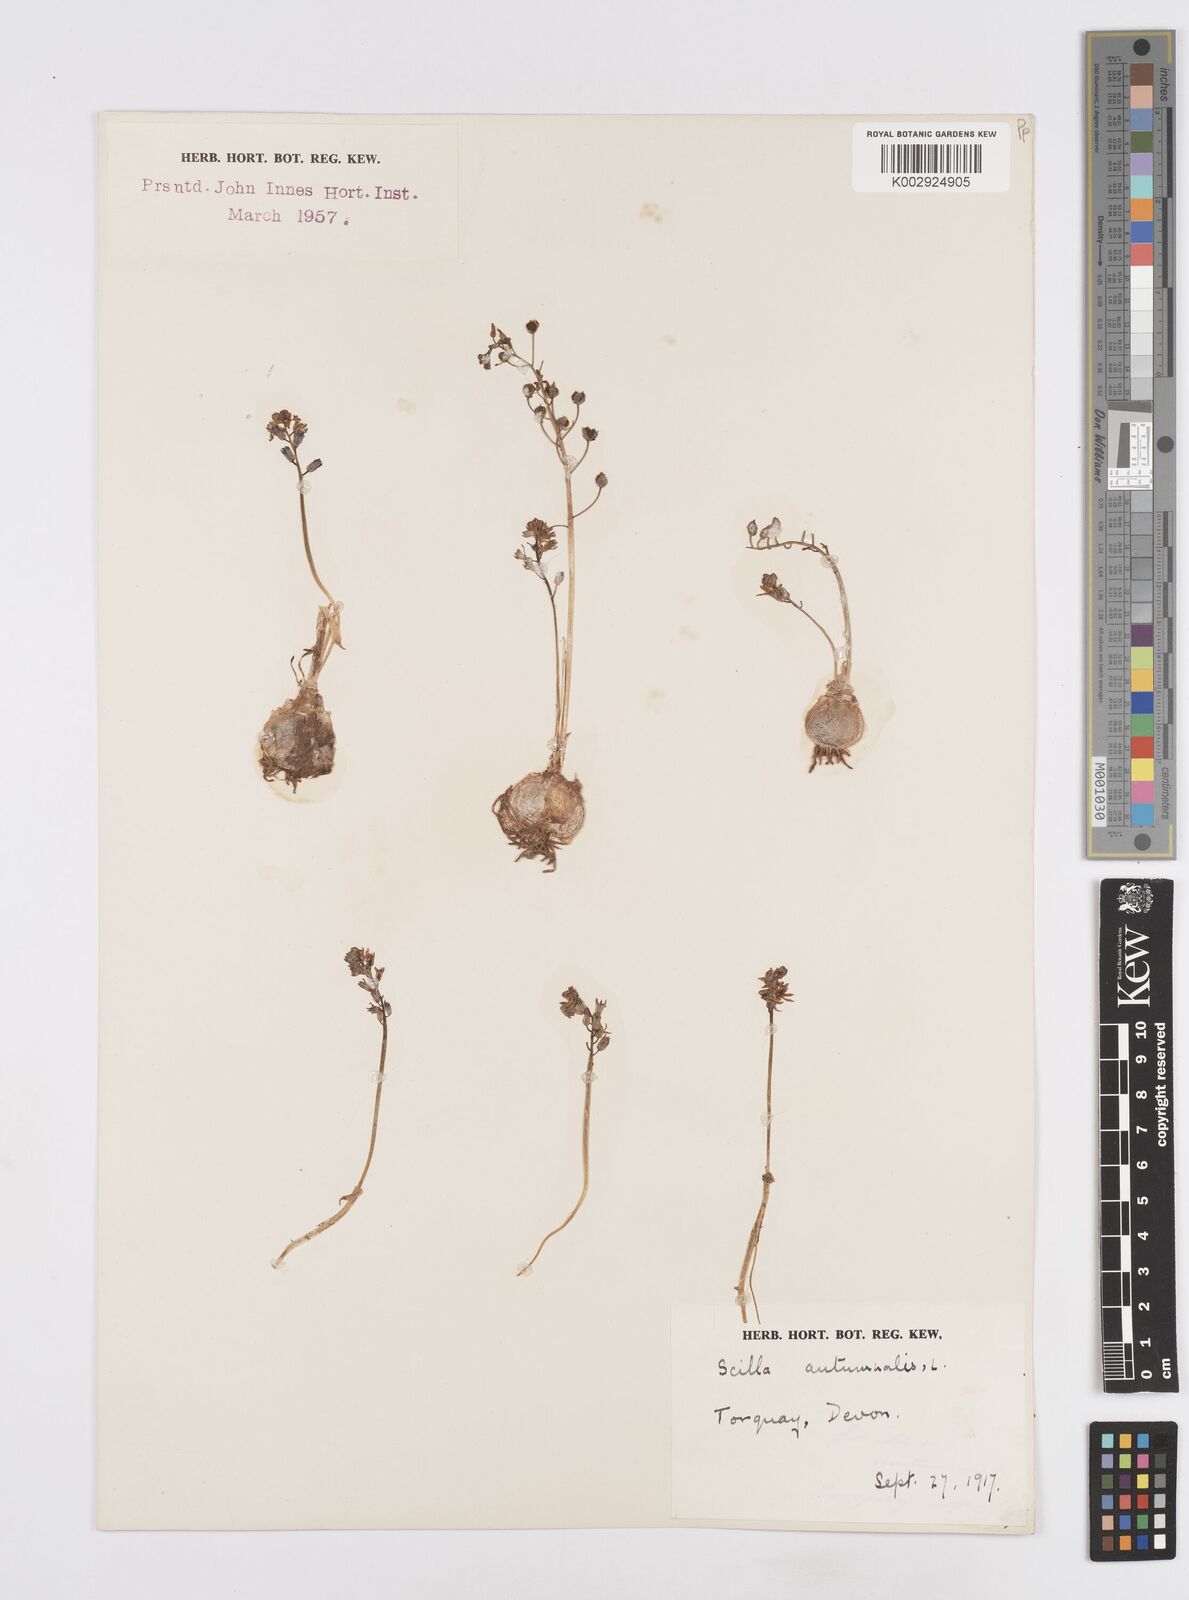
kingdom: Plantae
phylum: Tracheophyta
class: Liliopsida
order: Asparagales
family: Asparagaceae
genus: Prospero
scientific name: Prospero autumnale
